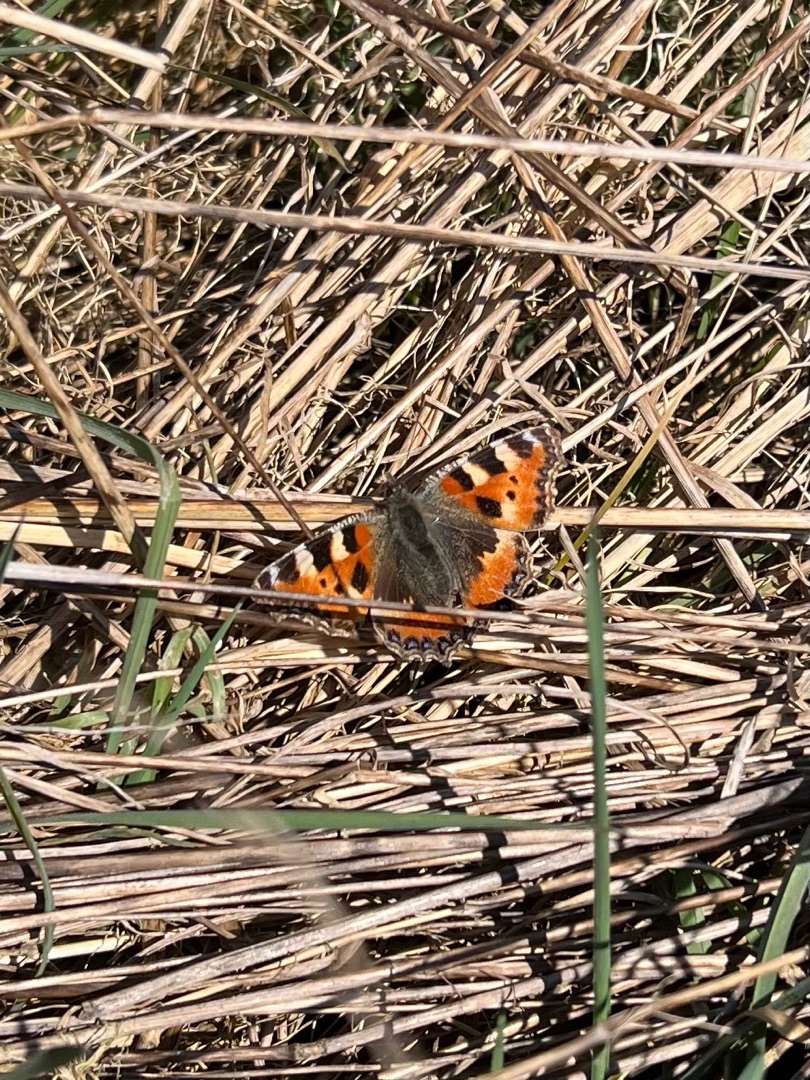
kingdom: Animalia
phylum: Arthropoda
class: Insecta
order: Lepidoptera
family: Nymphalidae
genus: Aglais
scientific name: Aglais urticae
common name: Nældens takvinge
